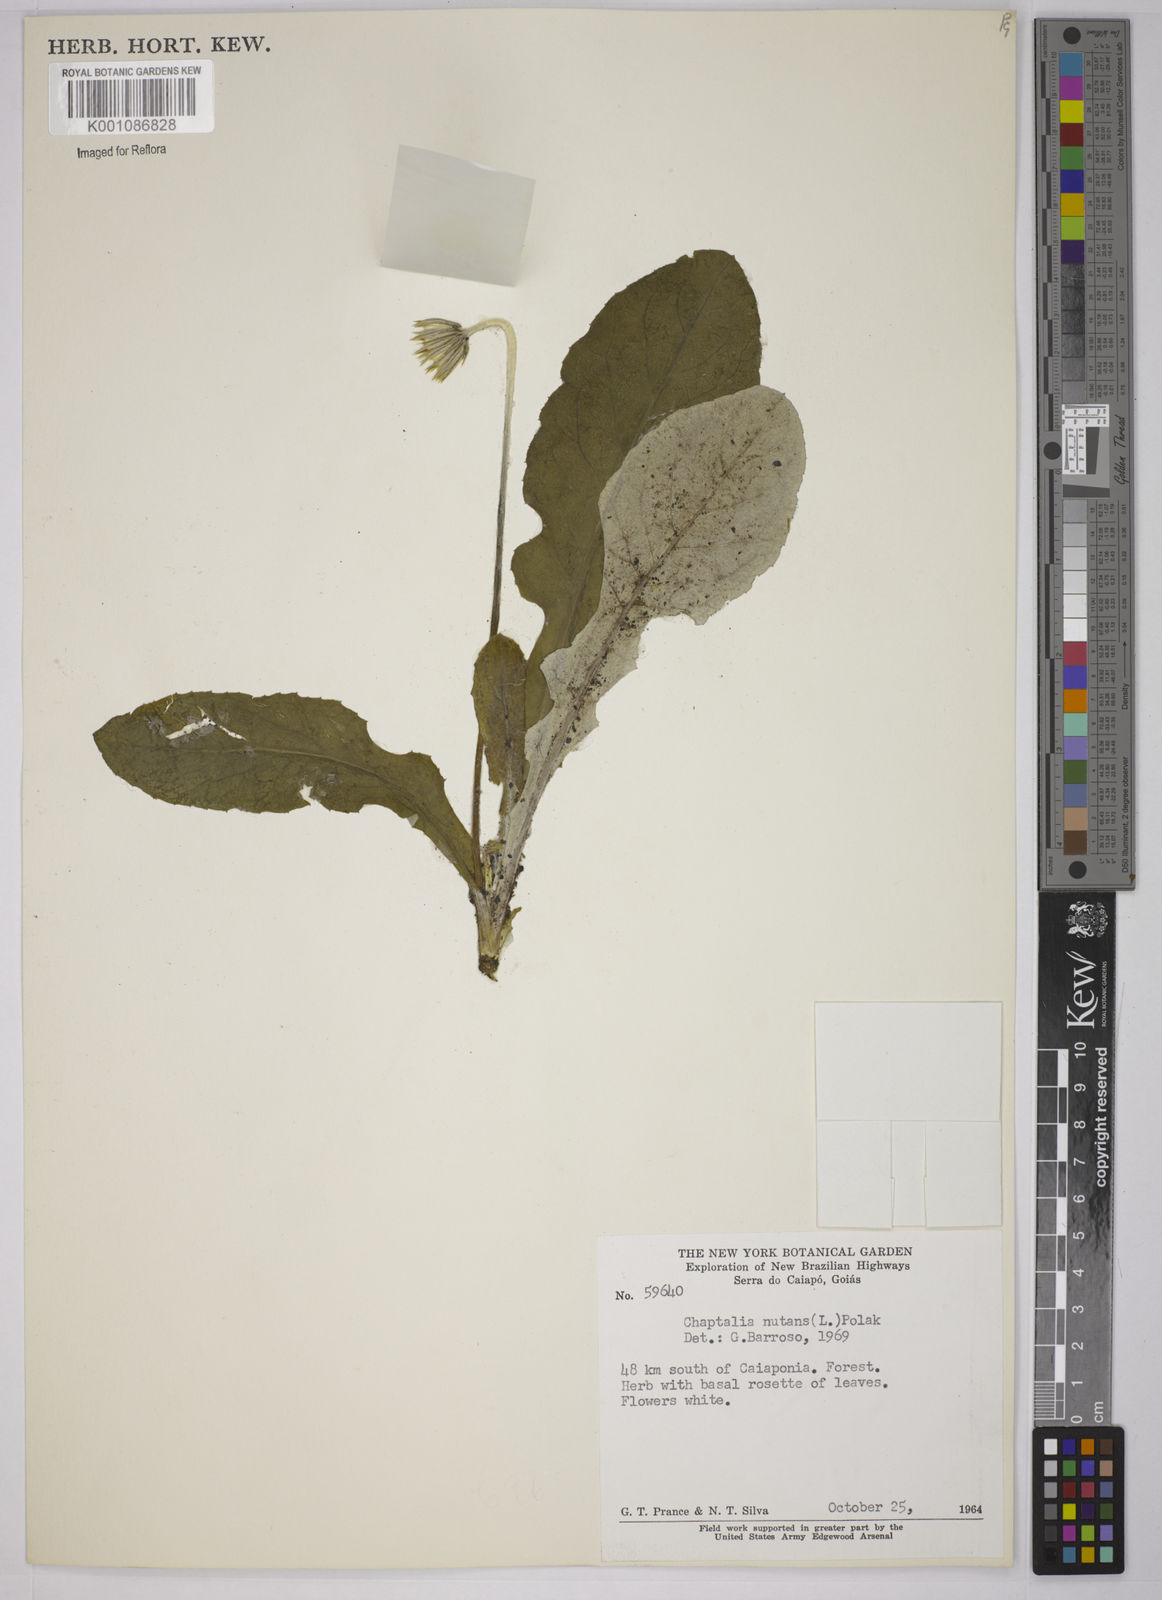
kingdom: Plantae
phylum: Tracheophyta
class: Magnoliopsida
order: Asterales
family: Asteraceae
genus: Chaptalia
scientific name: Chaptalia nutans
